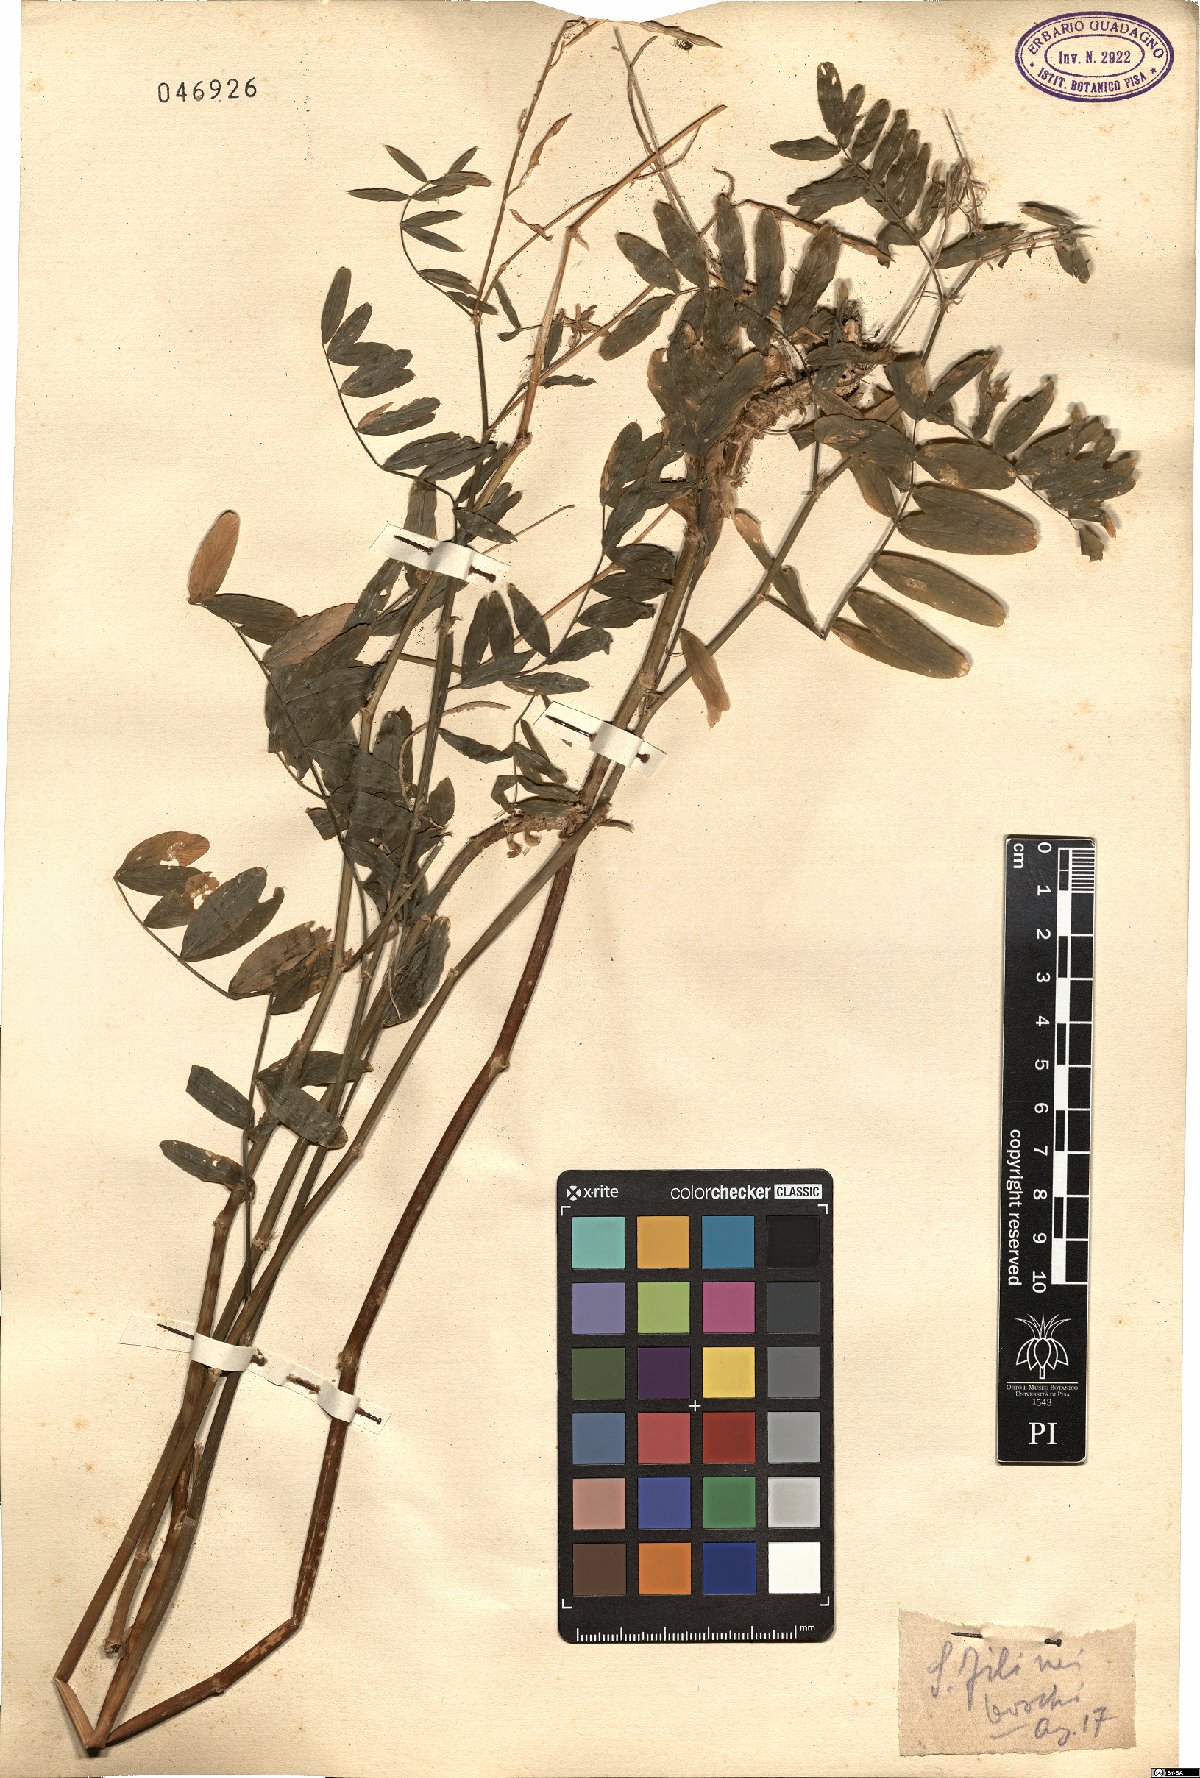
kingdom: Plantae
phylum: Tracheophyta
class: Magnoliopsida
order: Fabales
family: Fabaceae
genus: Galega
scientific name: Galega
